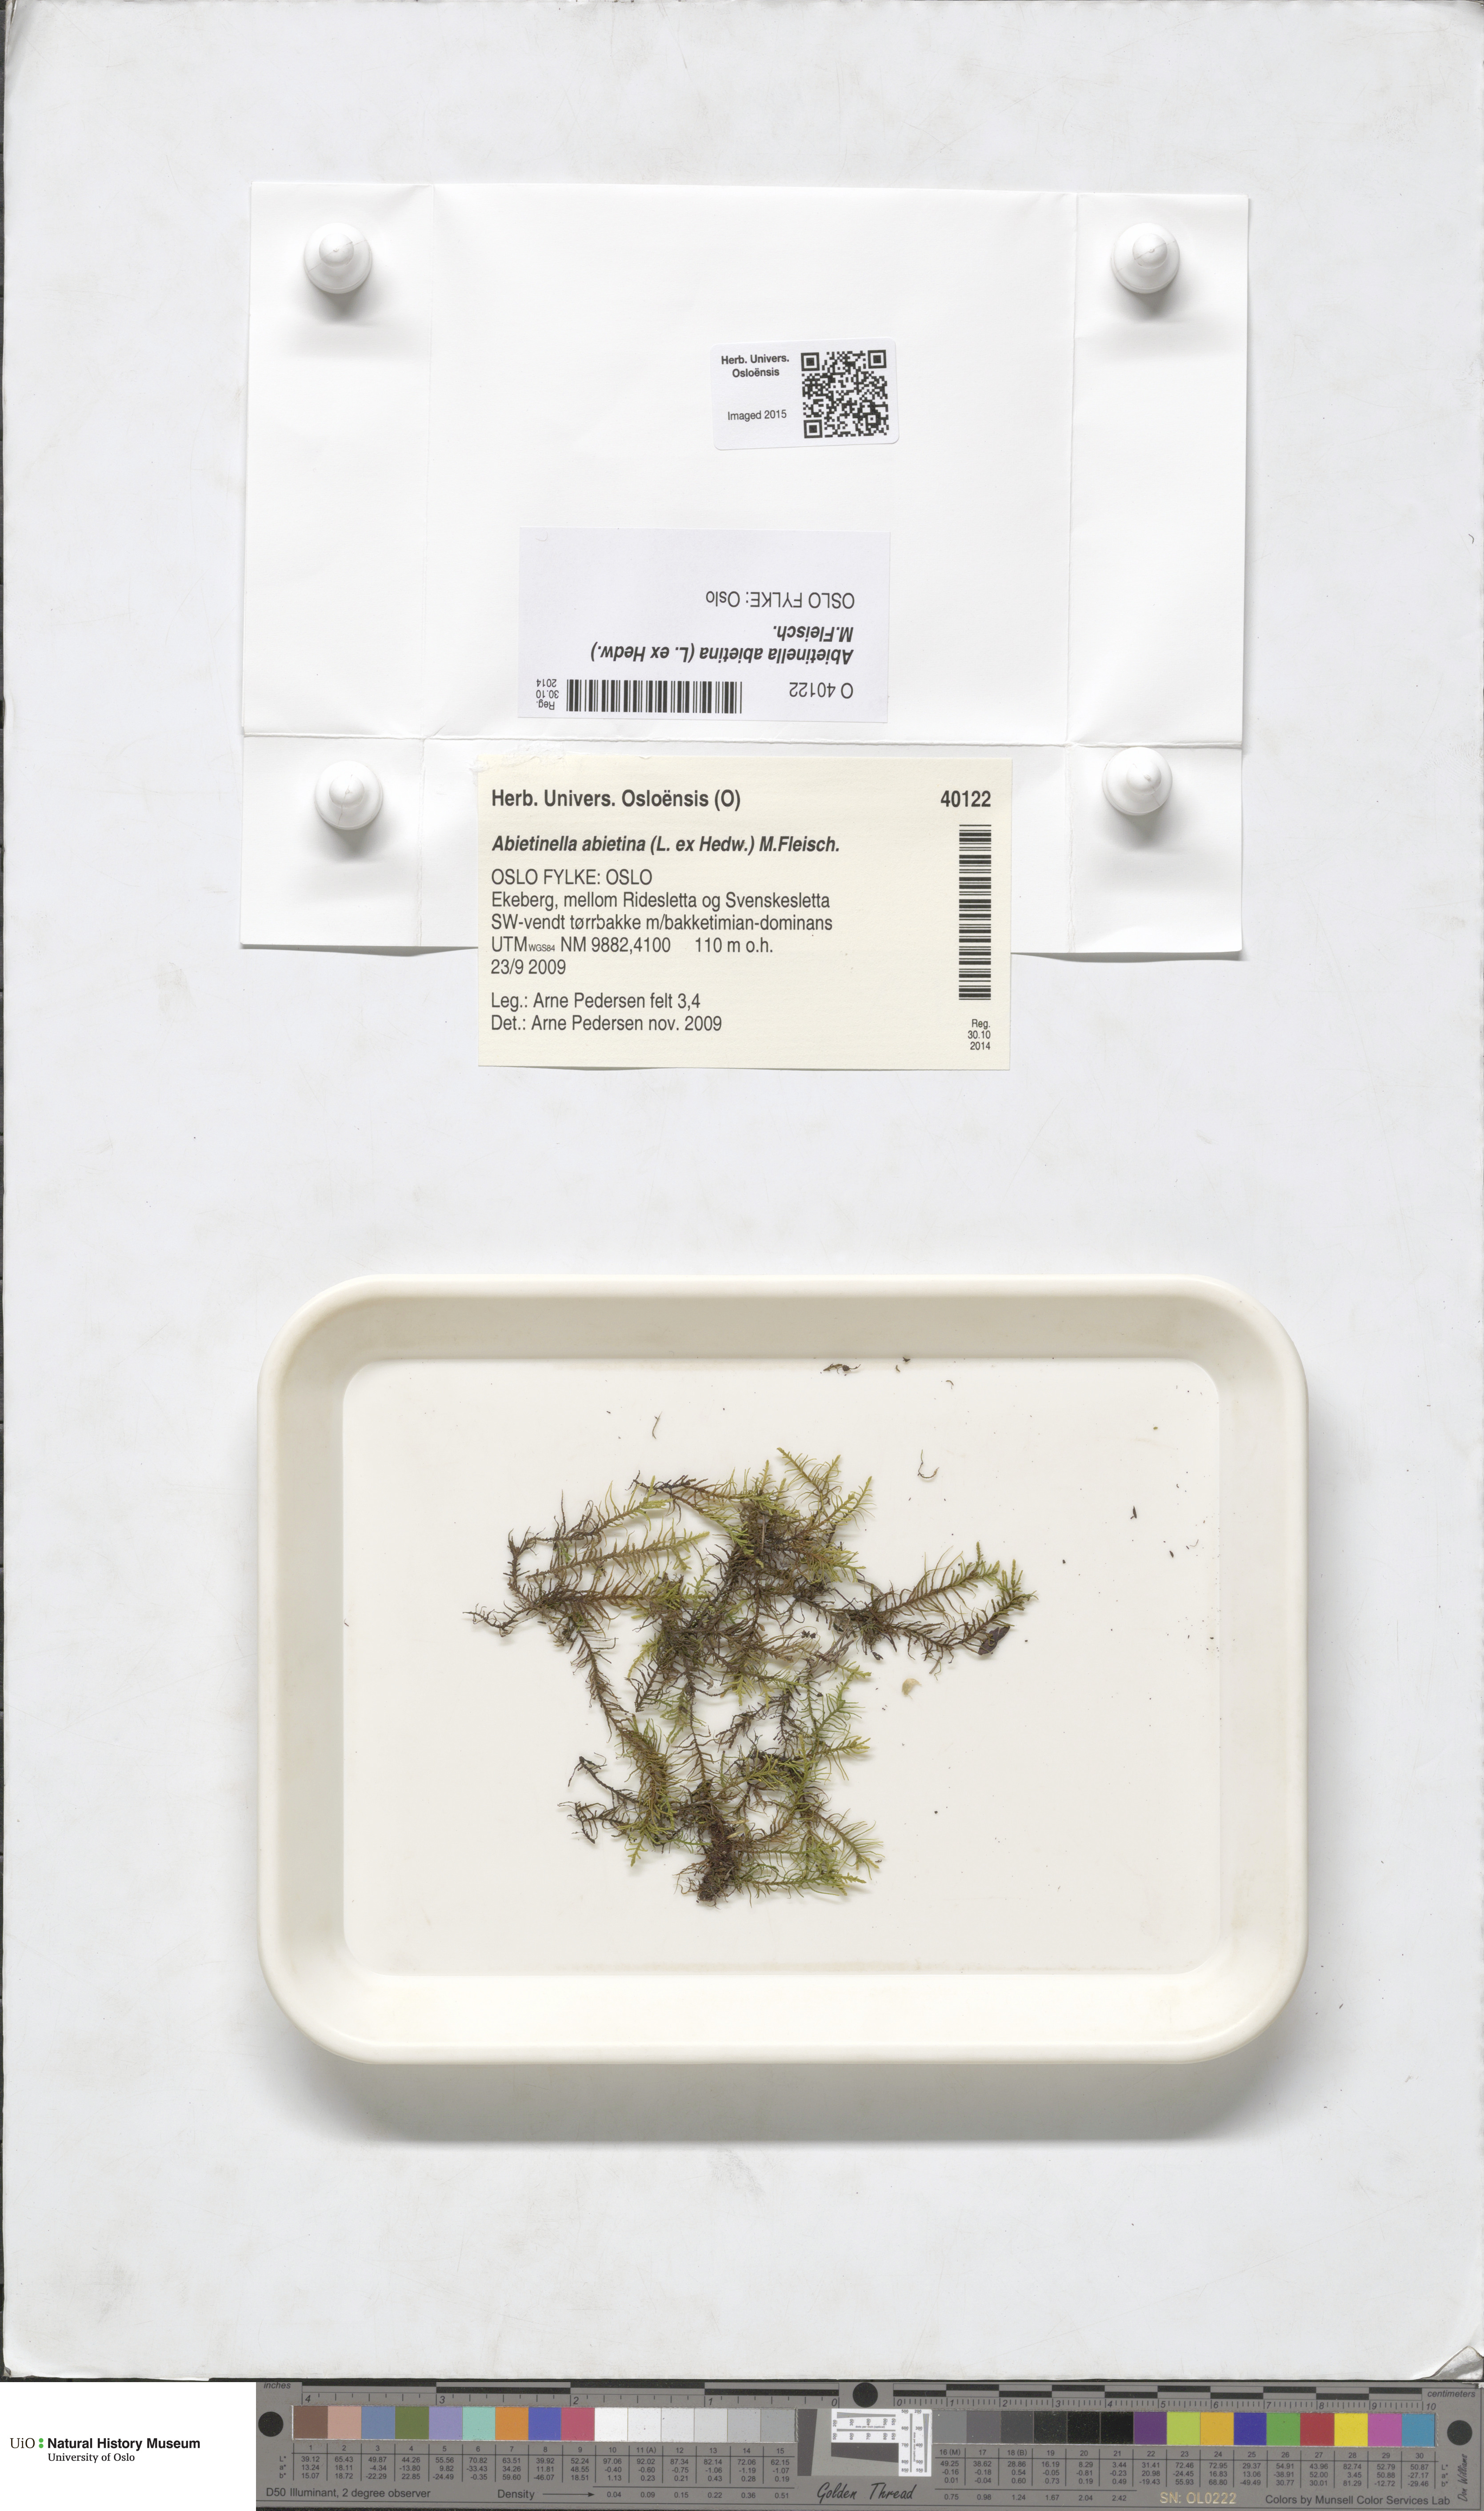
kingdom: Plantae
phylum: Bryophyta
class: Bryopsida
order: Hypnales
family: Thuidiaceae
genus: Abietinella
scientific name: Abietinella abietina
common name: Wiry fern moss
